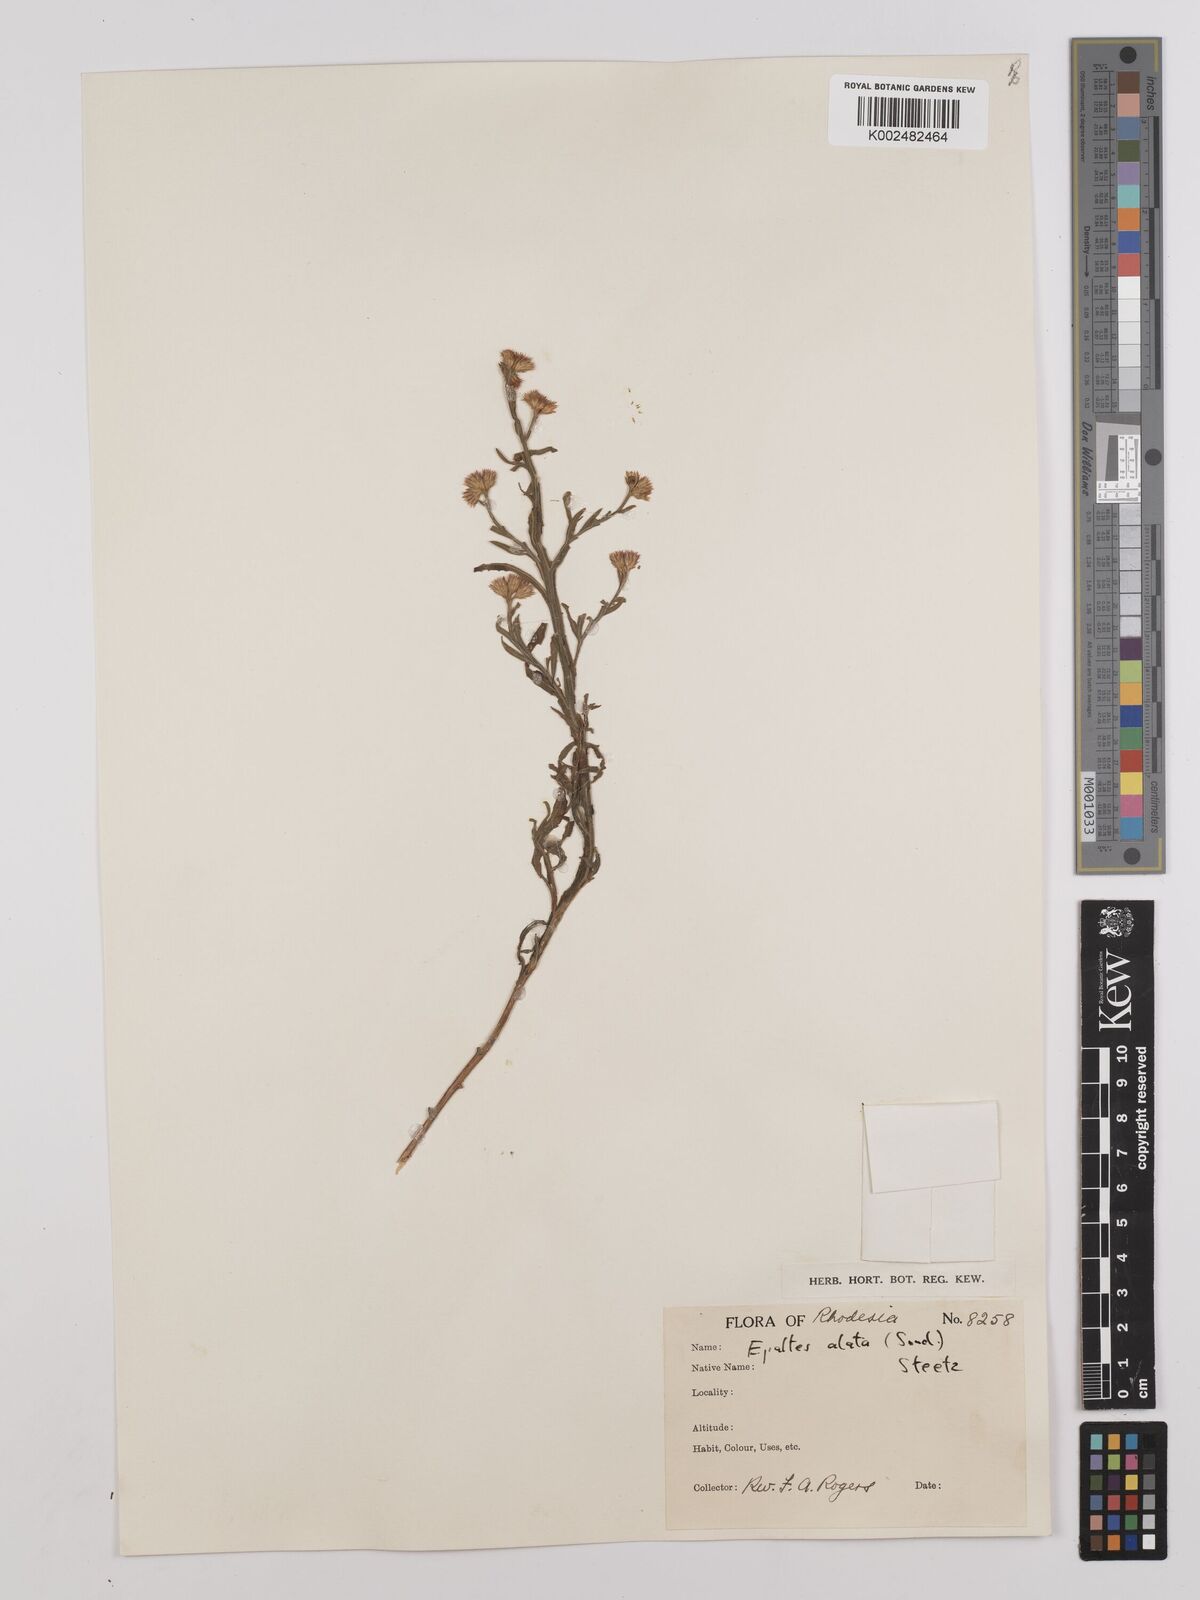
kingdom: Plantae
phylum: Tracheophyta
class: Magnoliopsida
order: Asterales
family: Asteraceae
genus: Litogyne
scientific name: Litogyne gariepina
